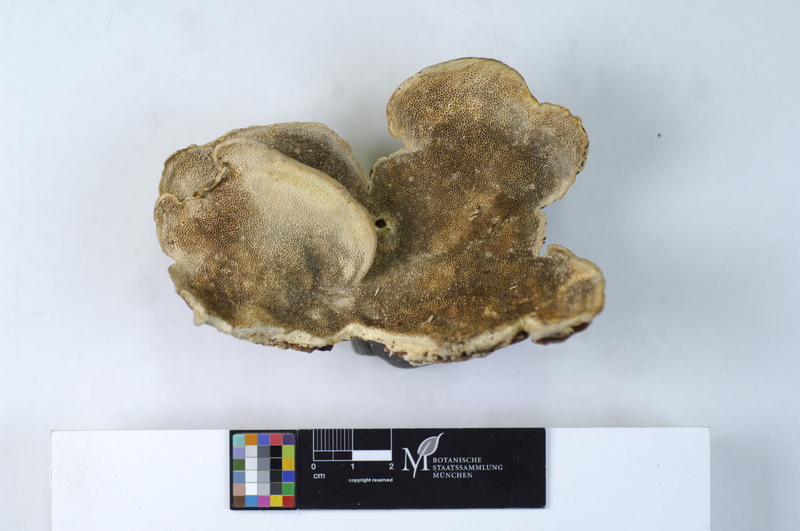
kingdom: Plantae
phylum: Tracheophyta
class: Magnoliopsida
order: Malpighiales
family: Salicaceae
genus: Salix
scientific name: Salix
